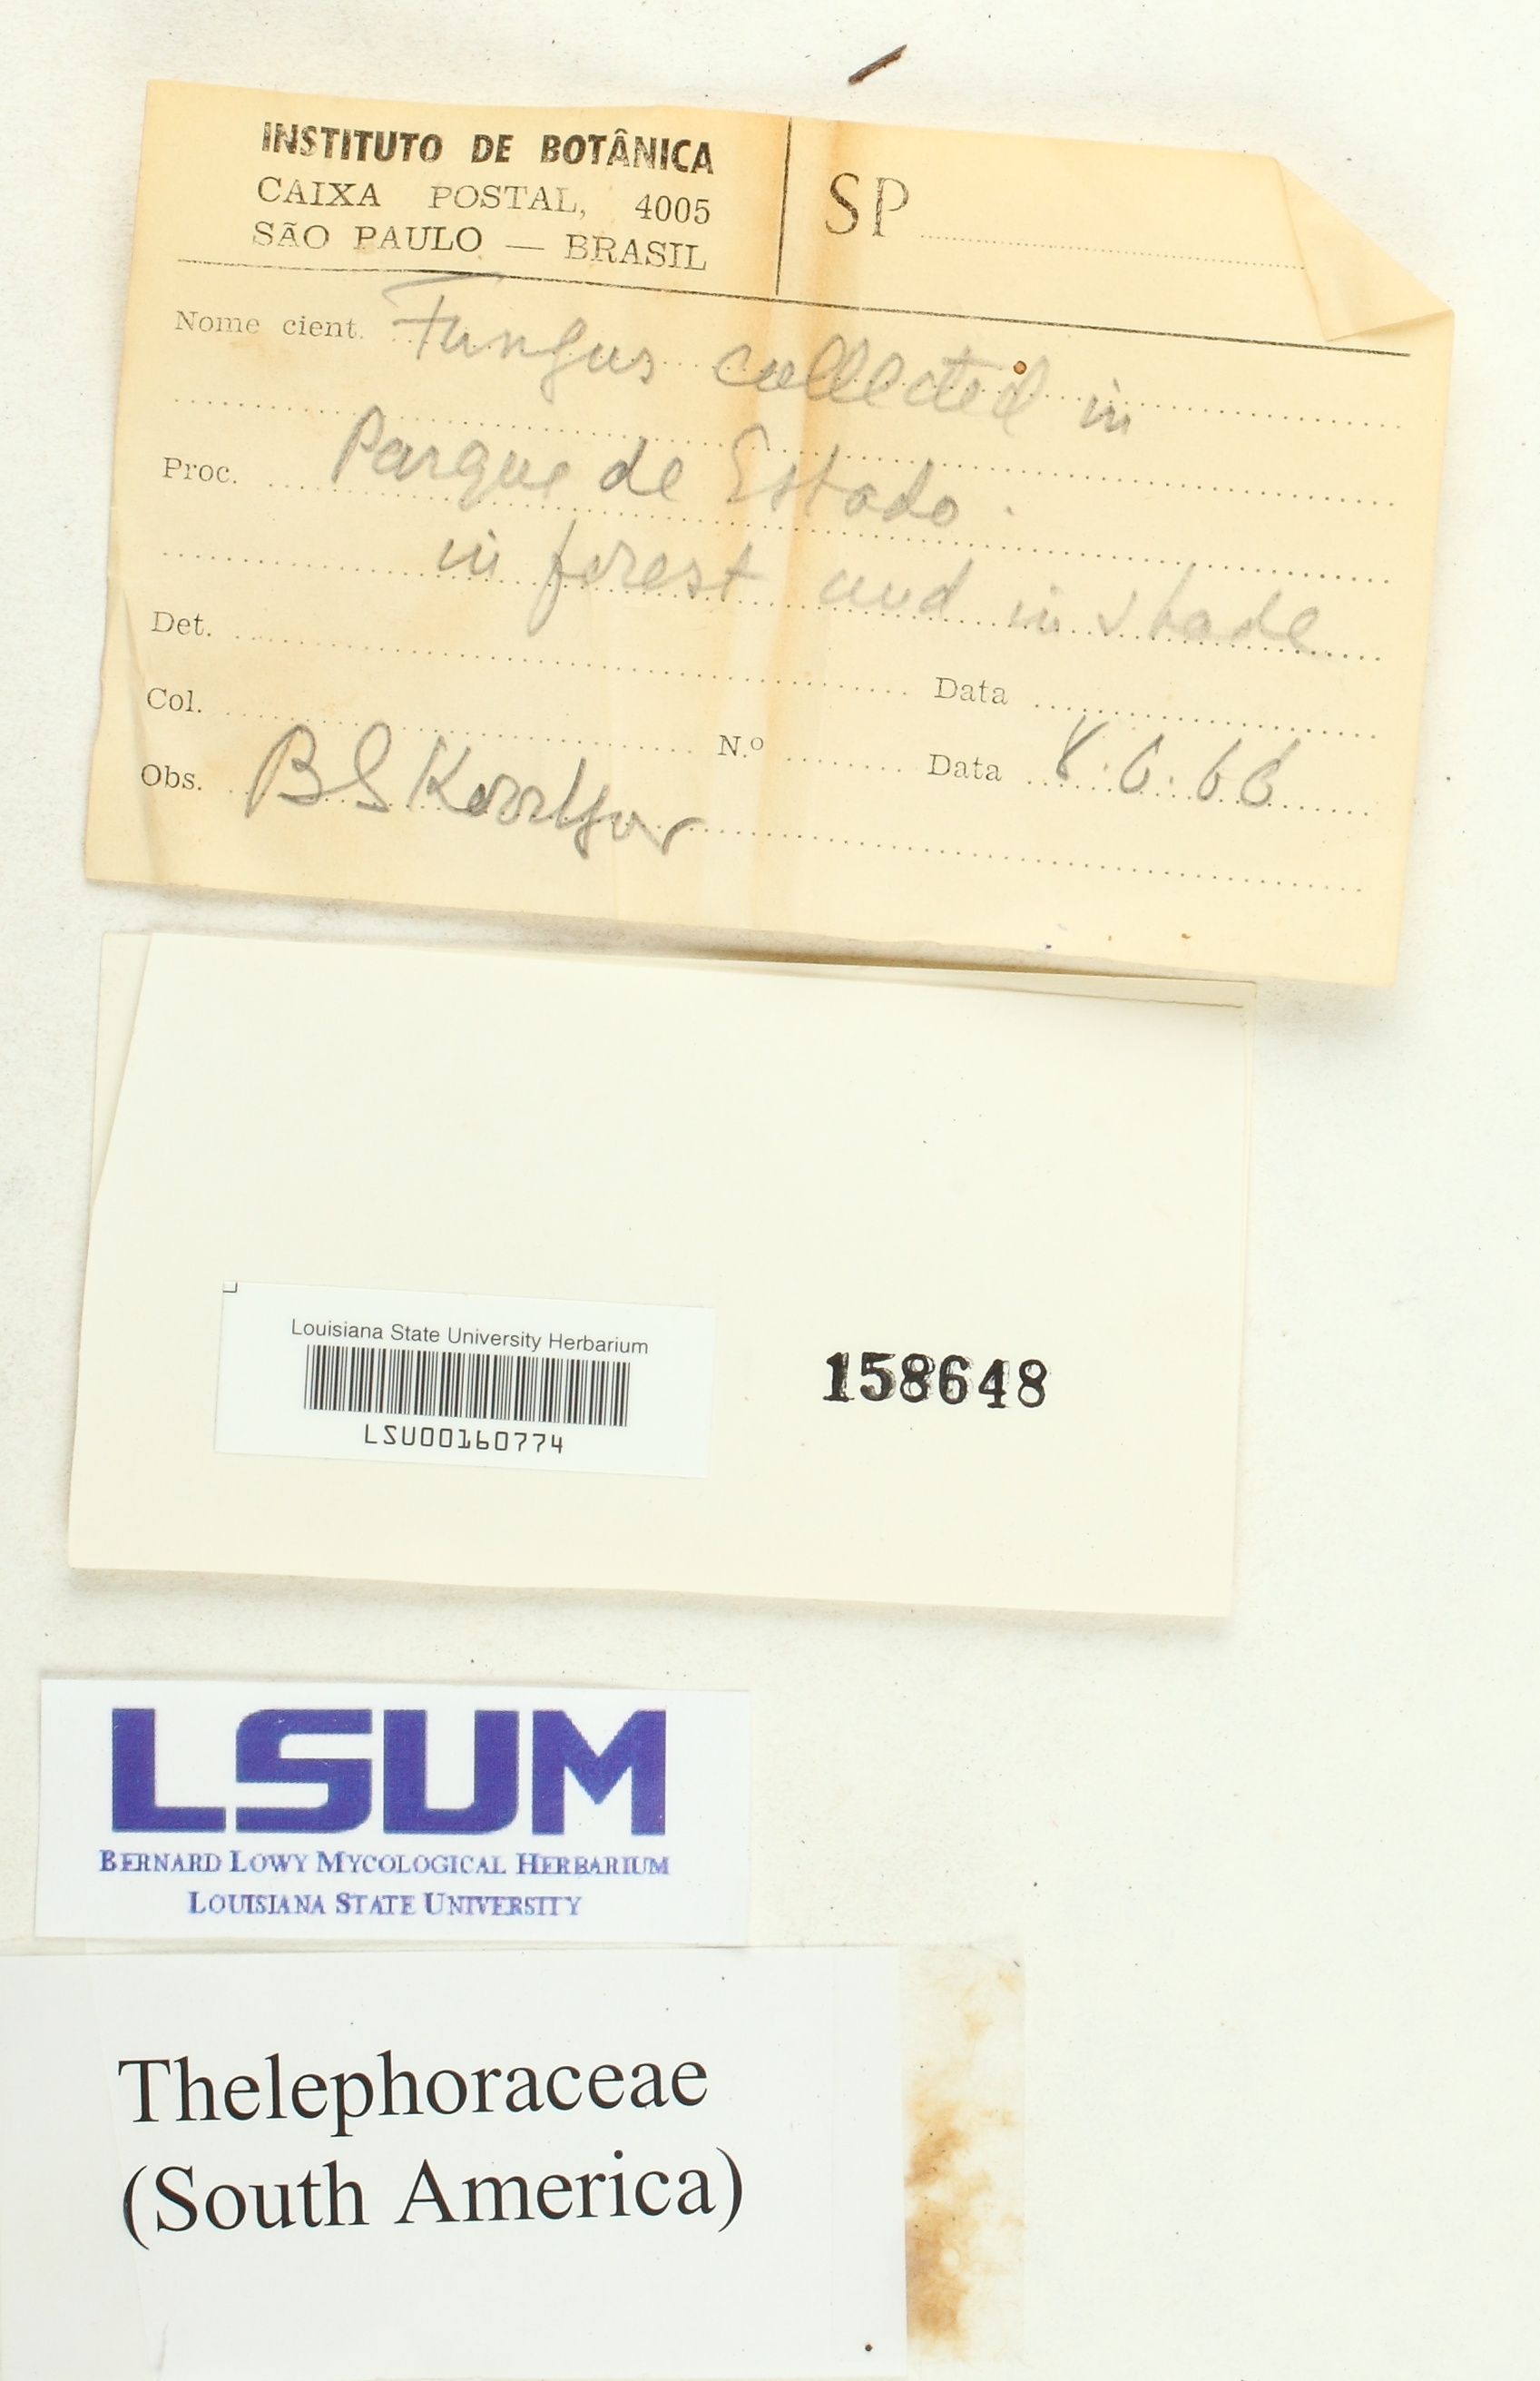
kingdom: Fungi
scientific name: Fungi
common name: Fungi
